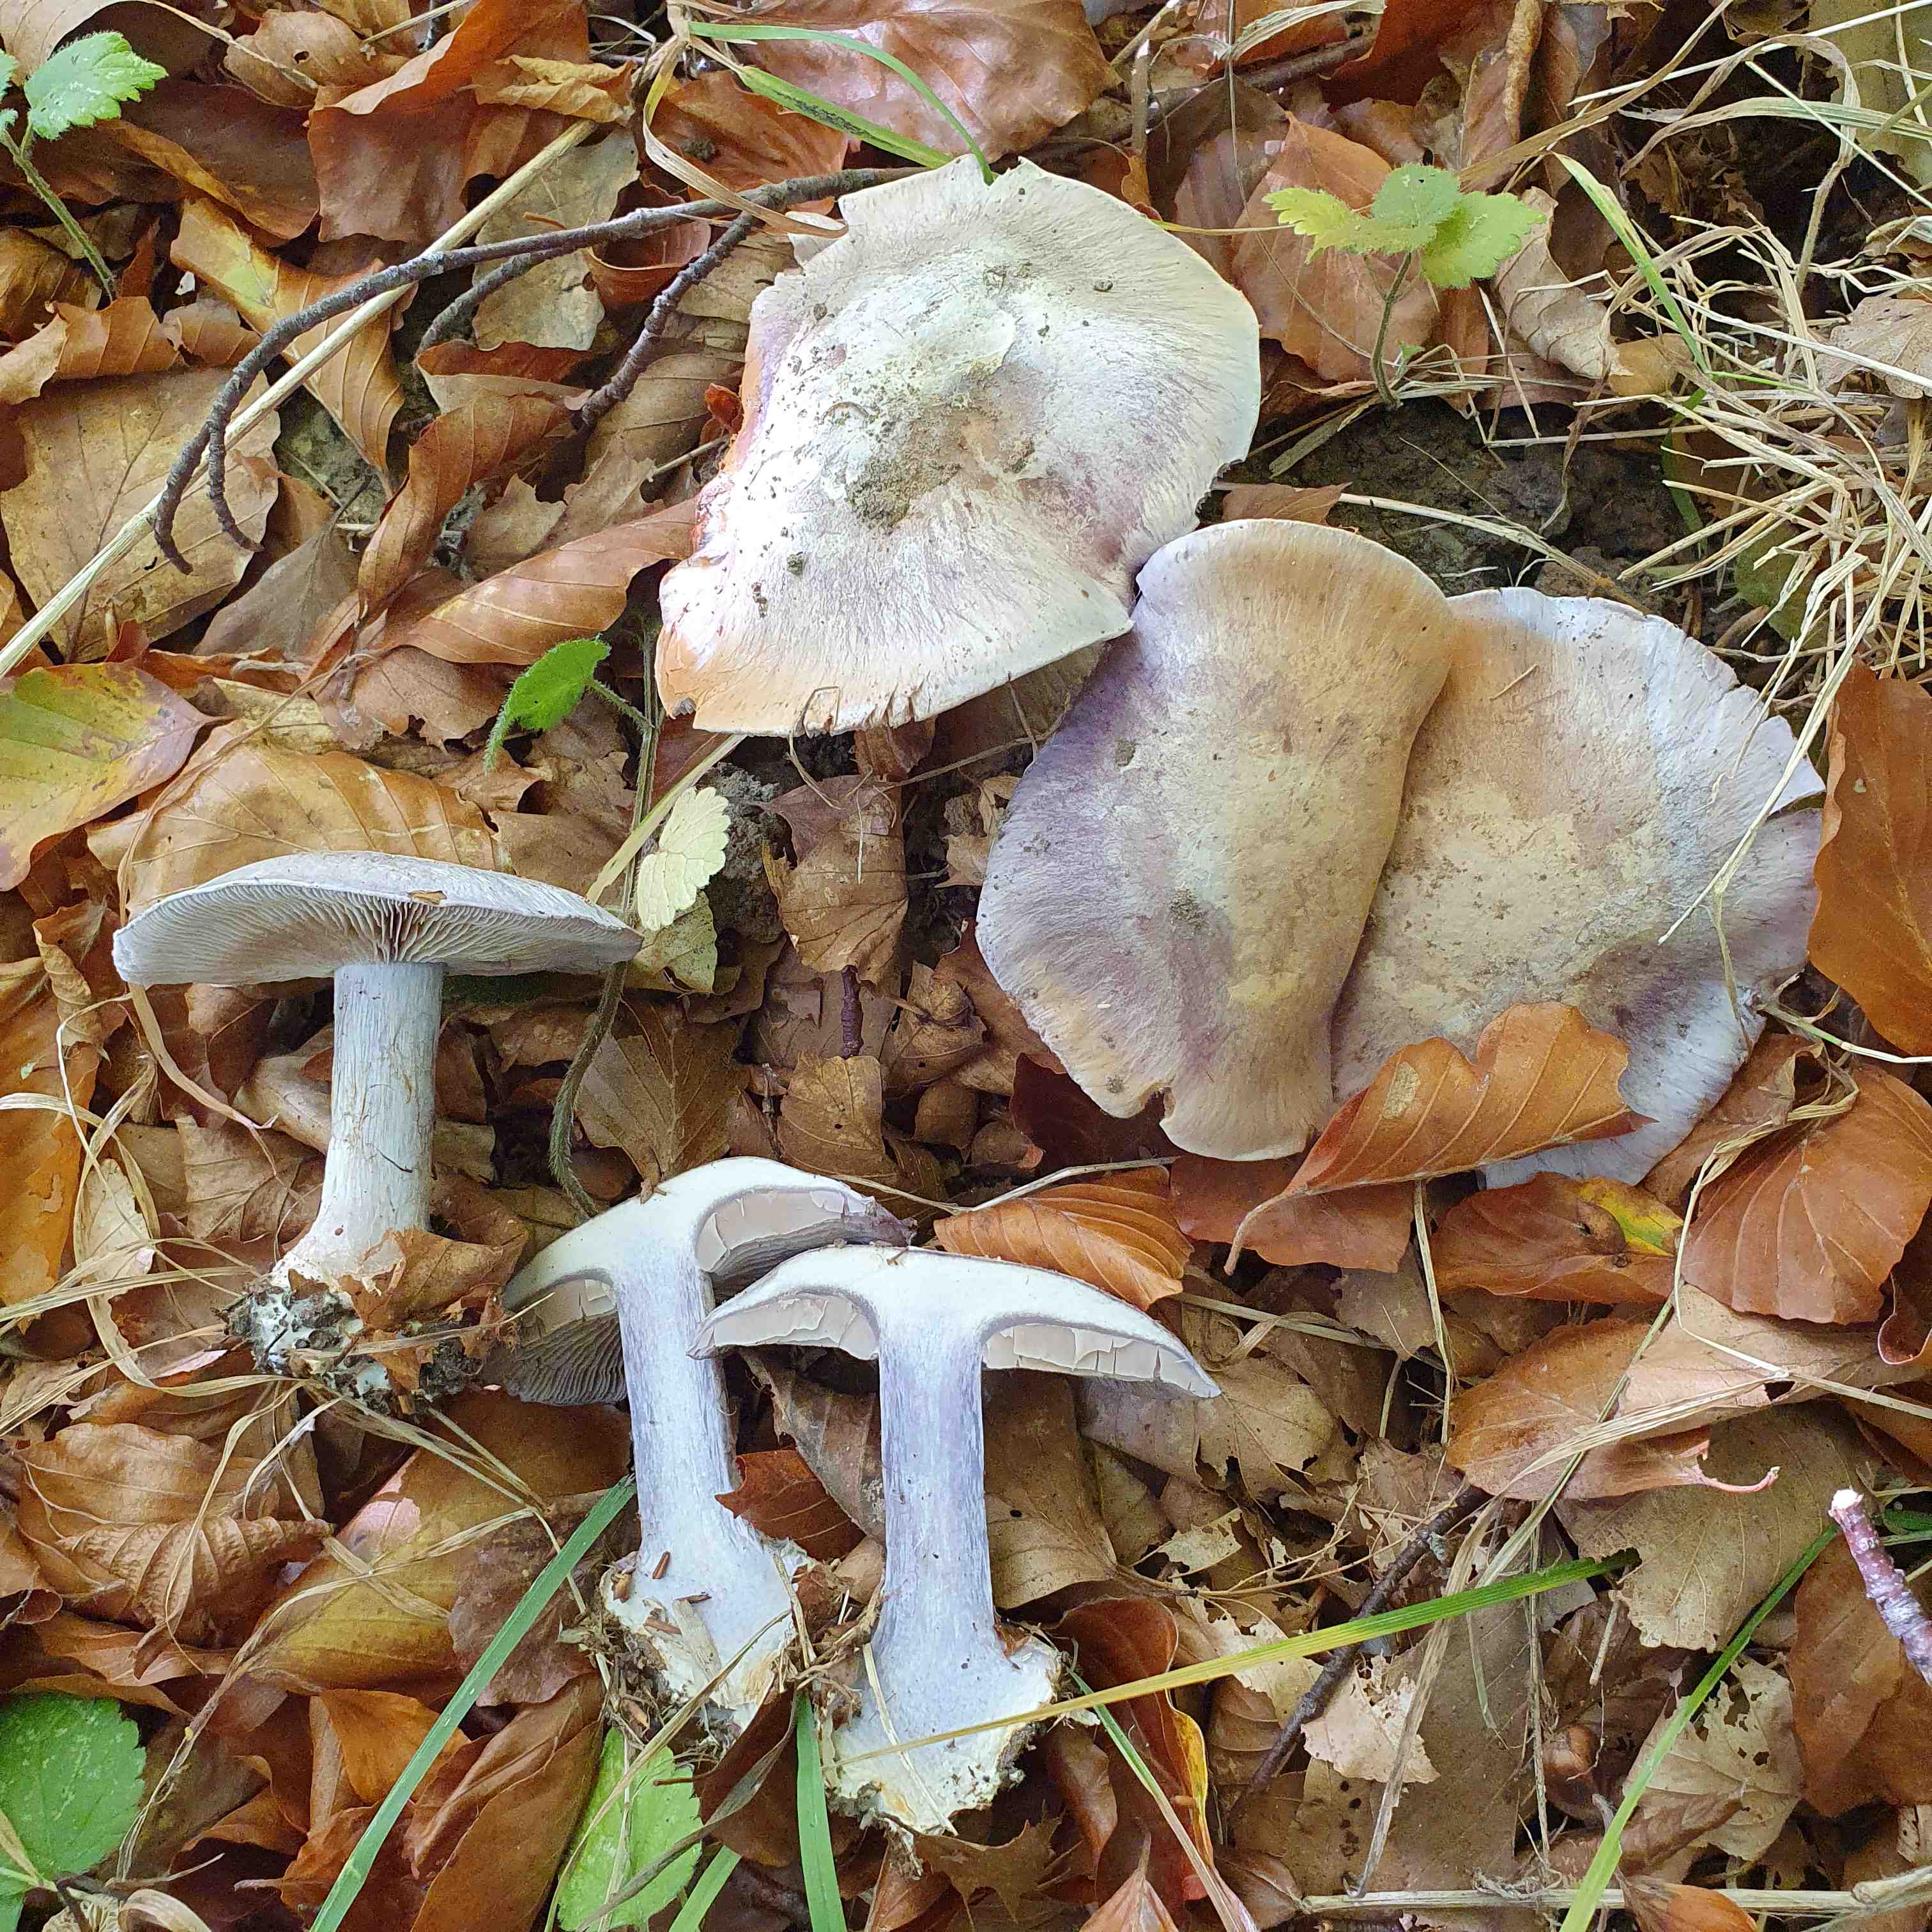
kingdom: Fungi
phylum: Basidiomycota
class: Agaricomycetes
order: Agaricales
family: Cortinariaceae
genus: Cortinarius
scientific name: Cortinarius caerulescens
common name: blåkødet slørhat
